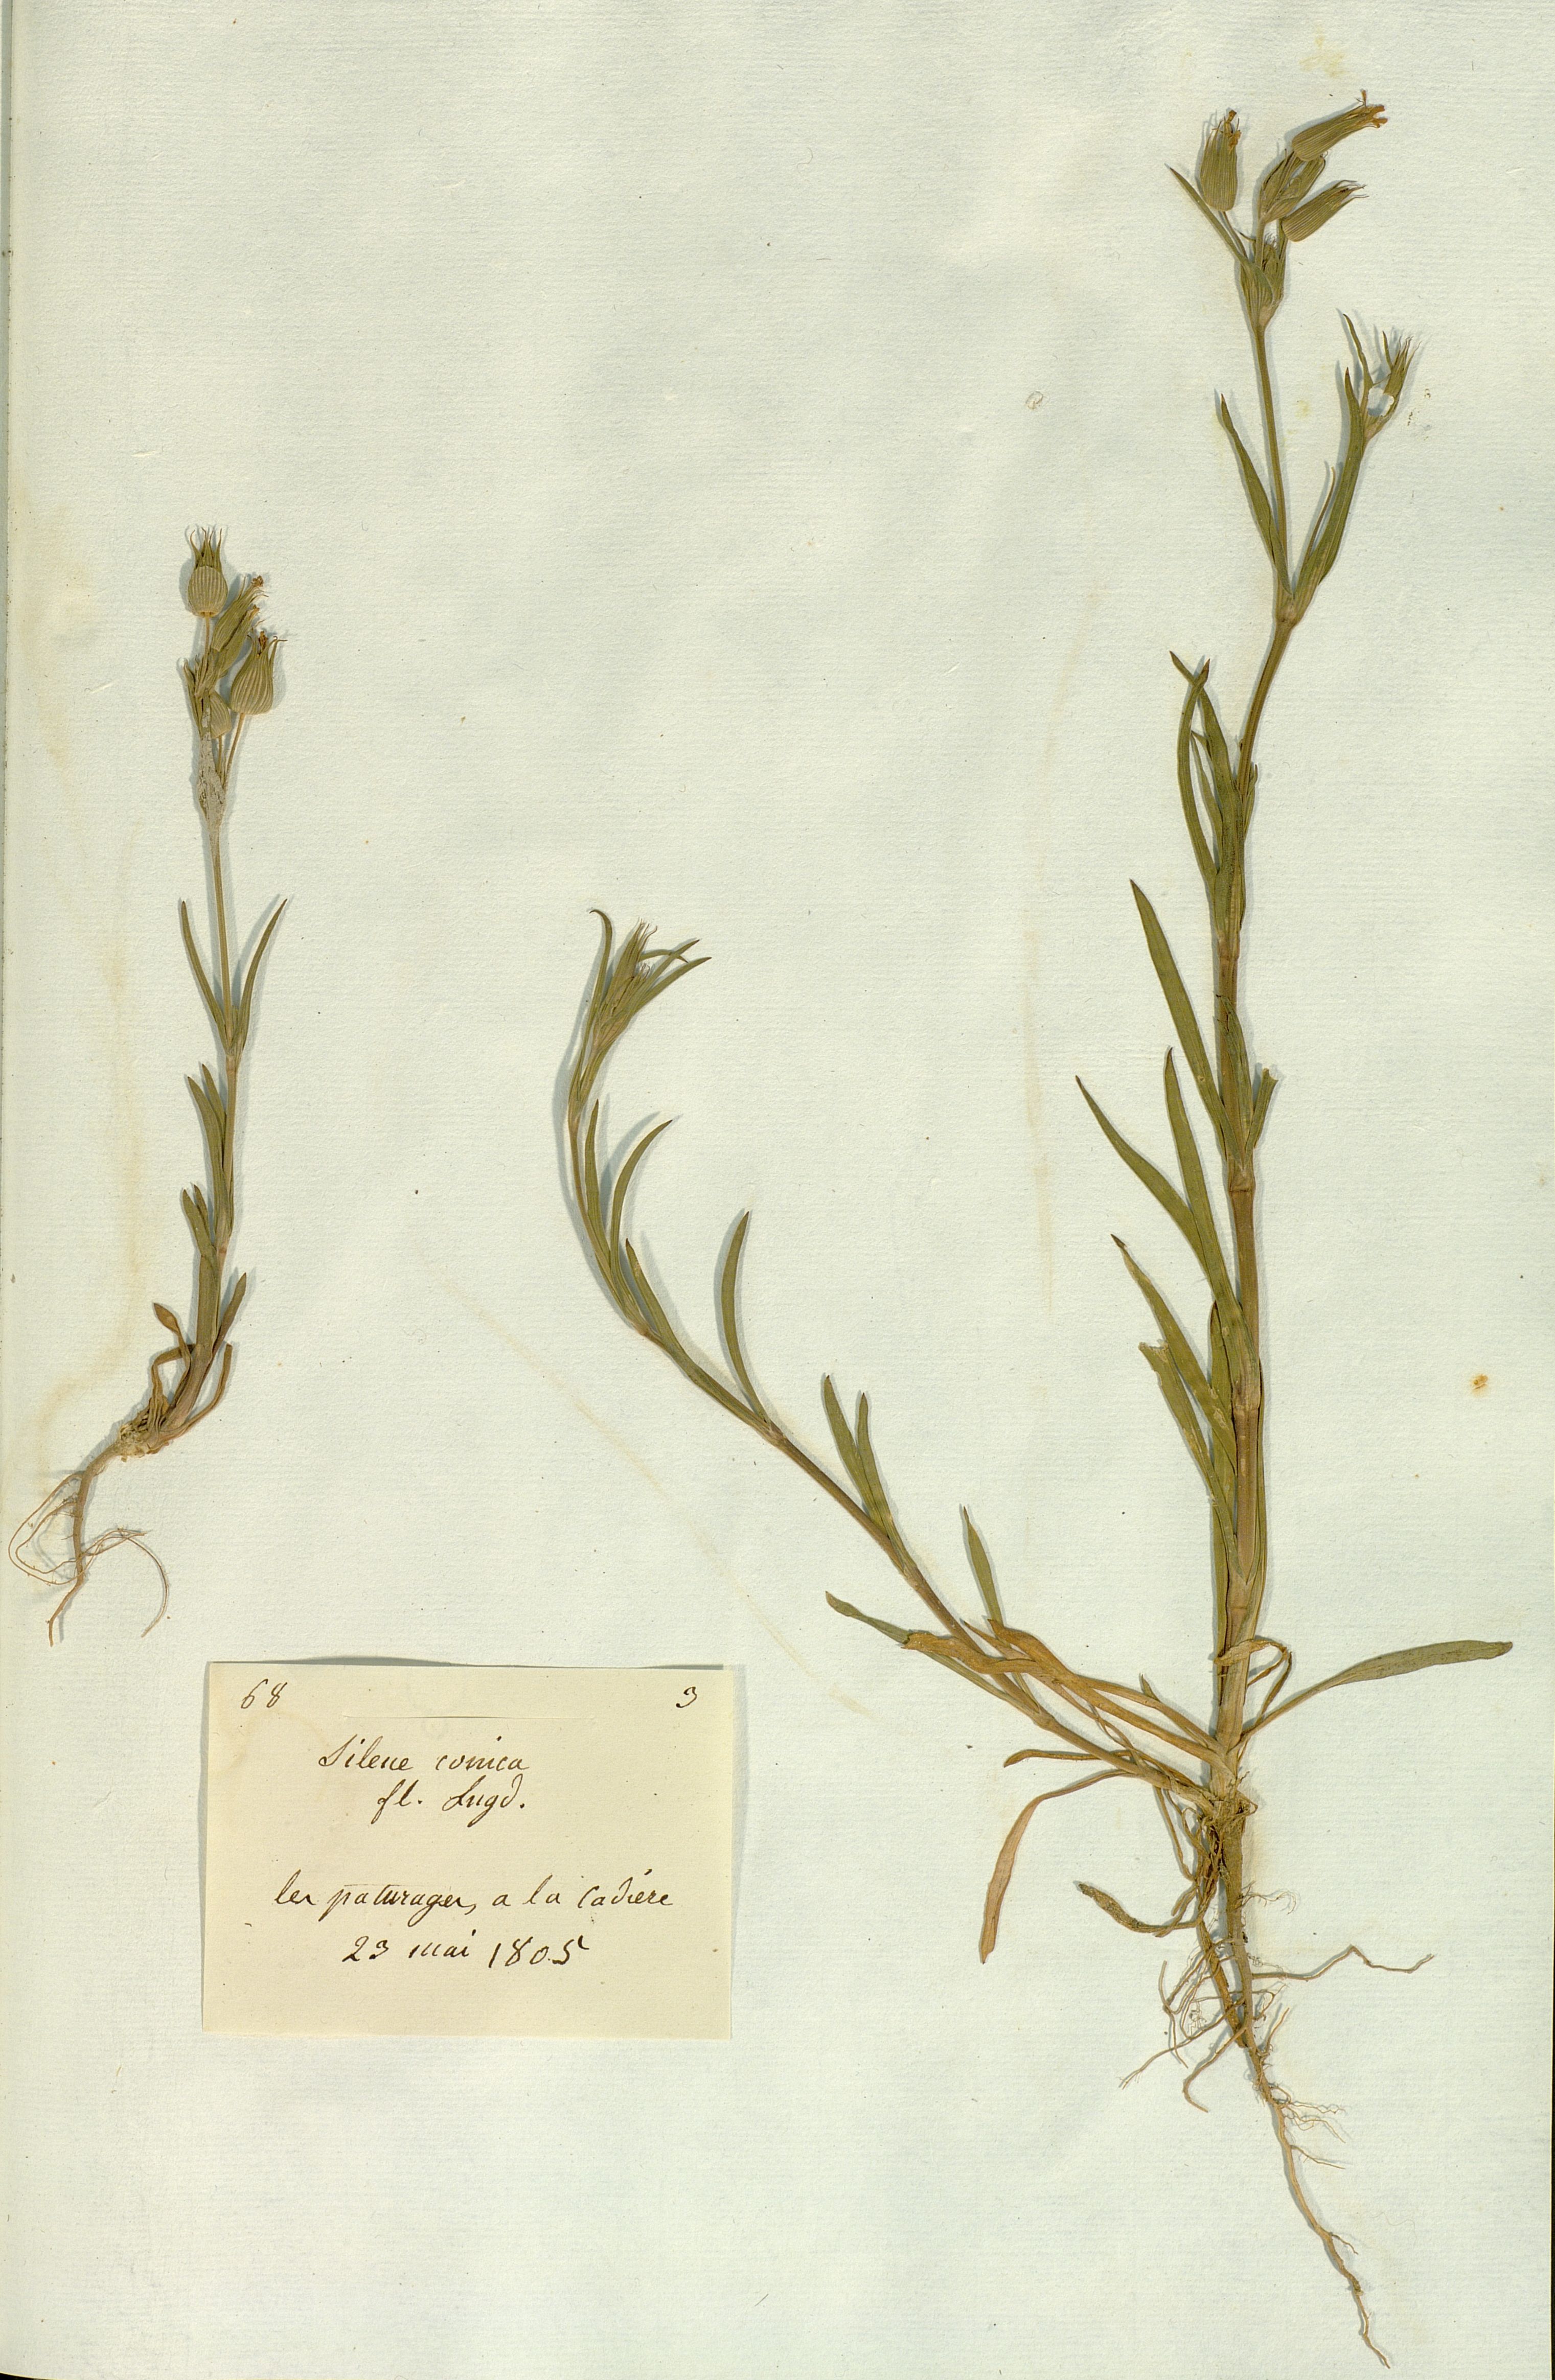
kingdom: Plantae
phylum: Tracheophyta
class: Magnoliopsida
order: Caryophyllales
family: Caryophyllaceae
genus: Silene
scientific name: Silene conica
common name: Sand catchfly
